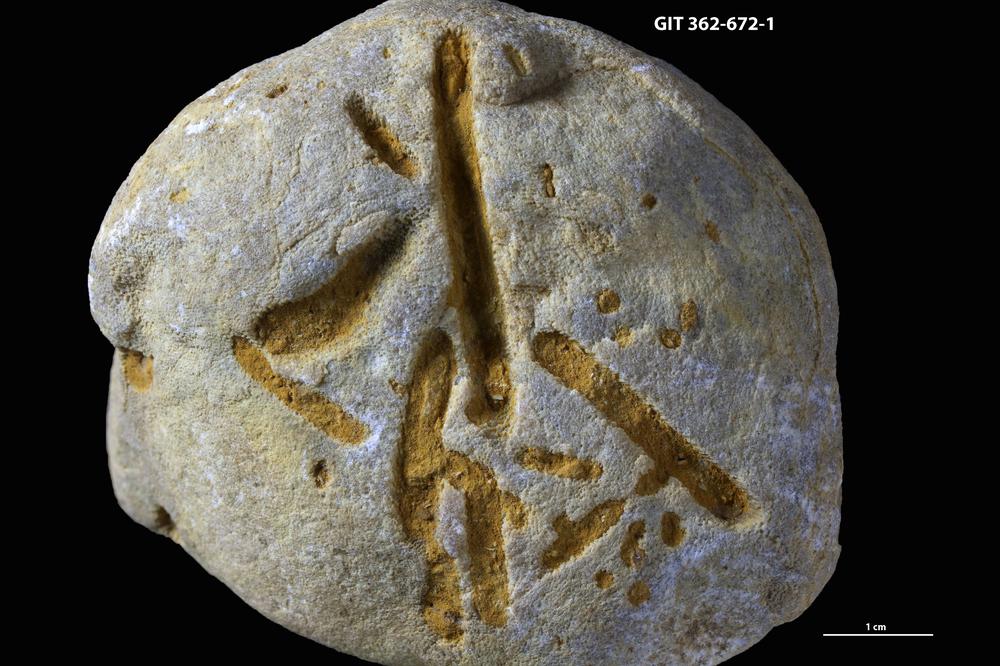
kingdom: Animalia
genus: Sulcolithos
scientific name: Sulcolithos variabilis
